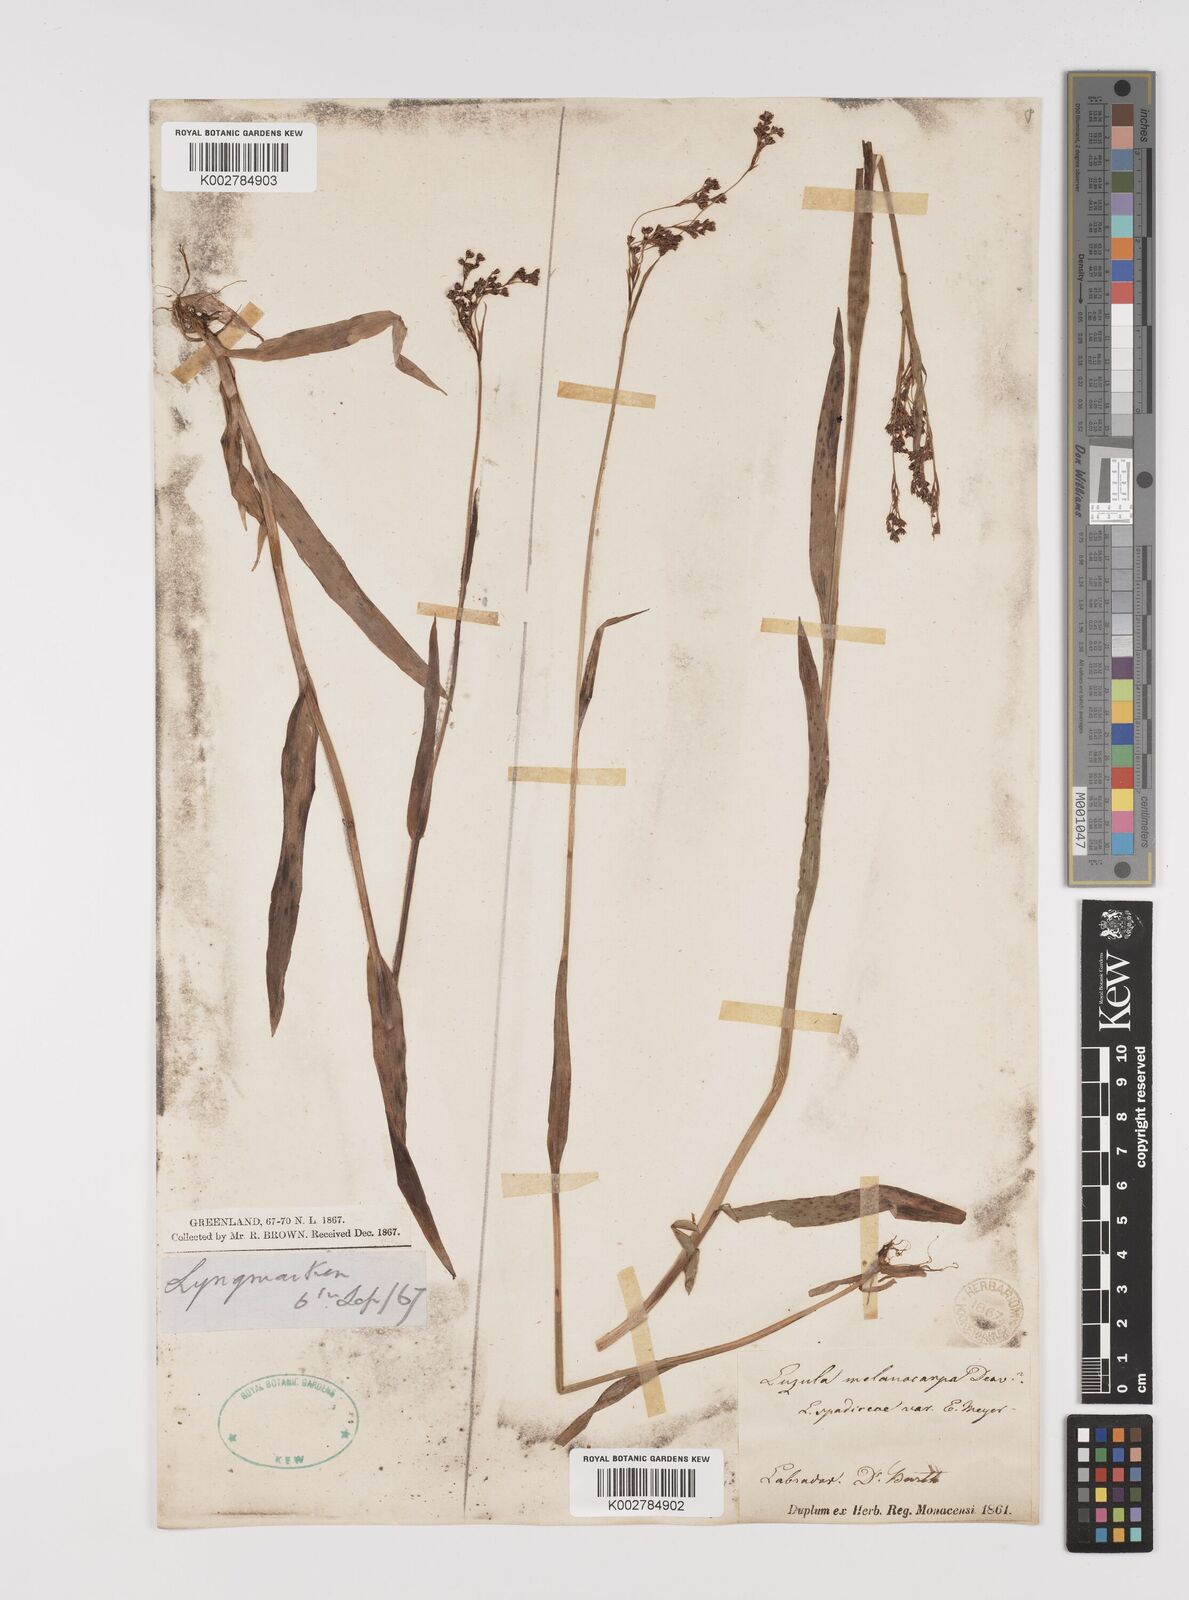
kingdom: Plantae
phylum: Tracheophyta
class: Liliopsida
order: Poales
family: Juncaceae
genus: Luzula
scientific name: Luzula
